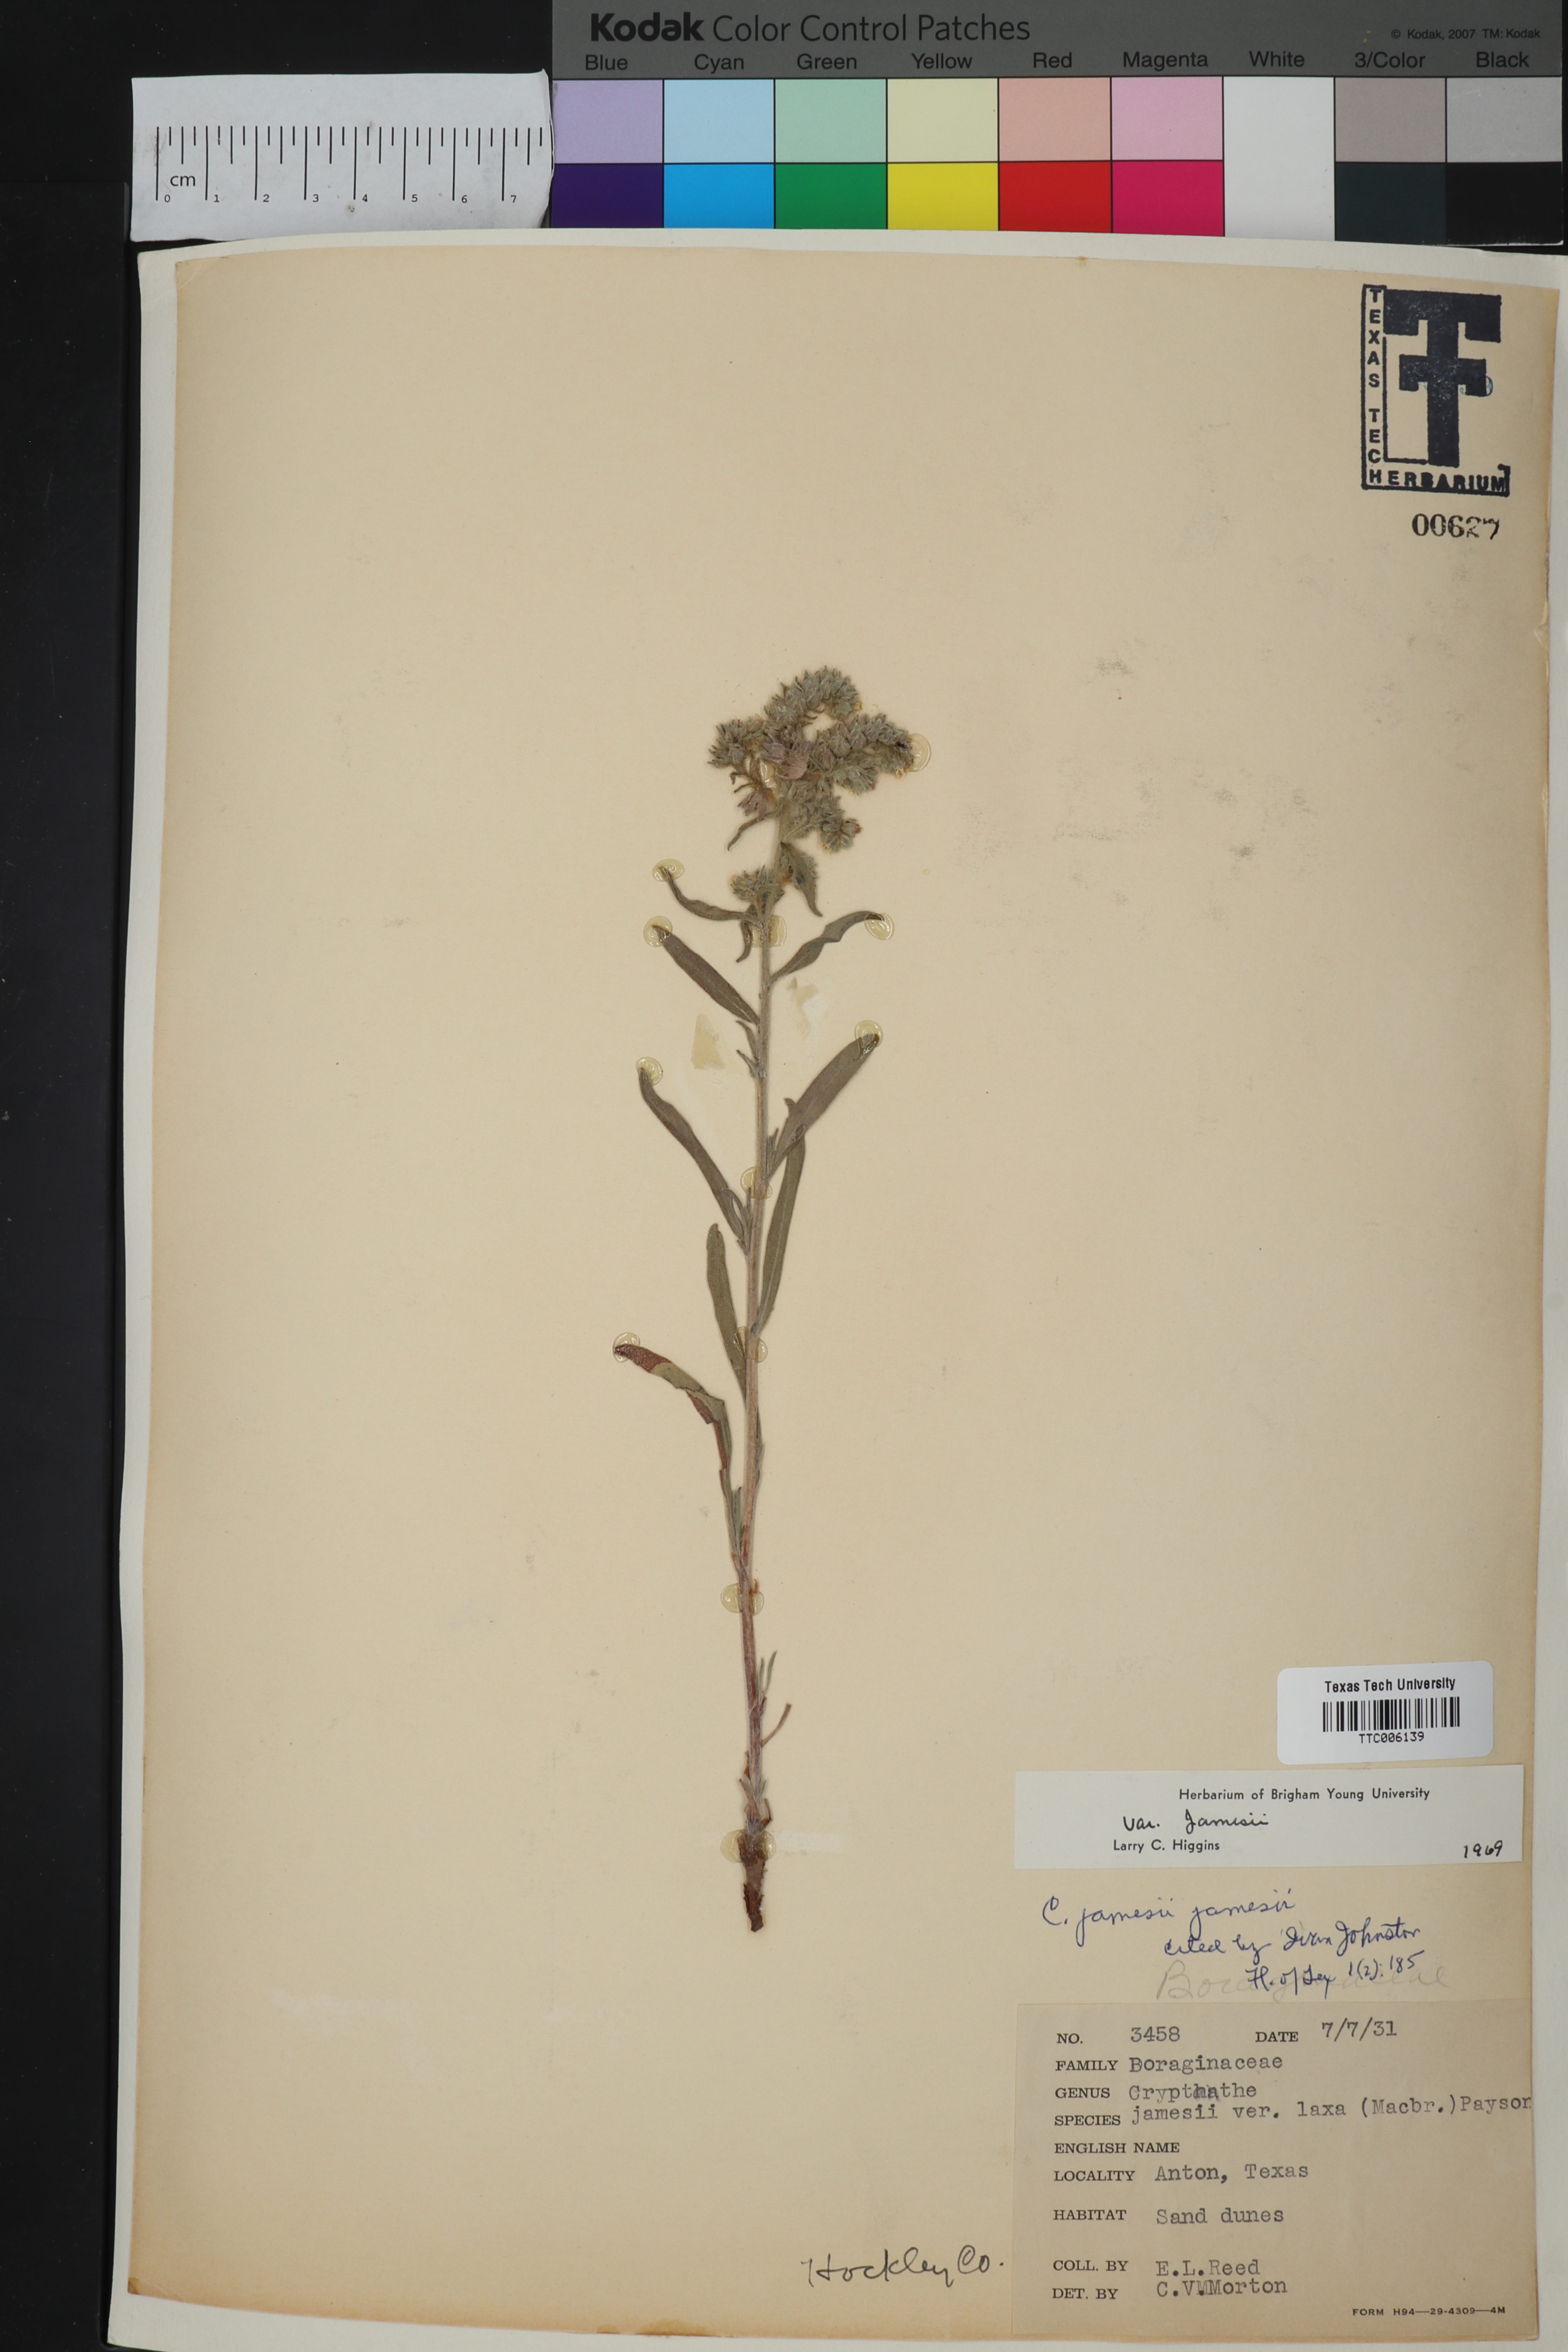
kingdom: Plantae
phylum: Tracheophyta
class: Magnoliopsida
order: Boraginales
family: Boraginaceae
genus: Oreocarya
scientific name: Oreocarya suffruticosa
